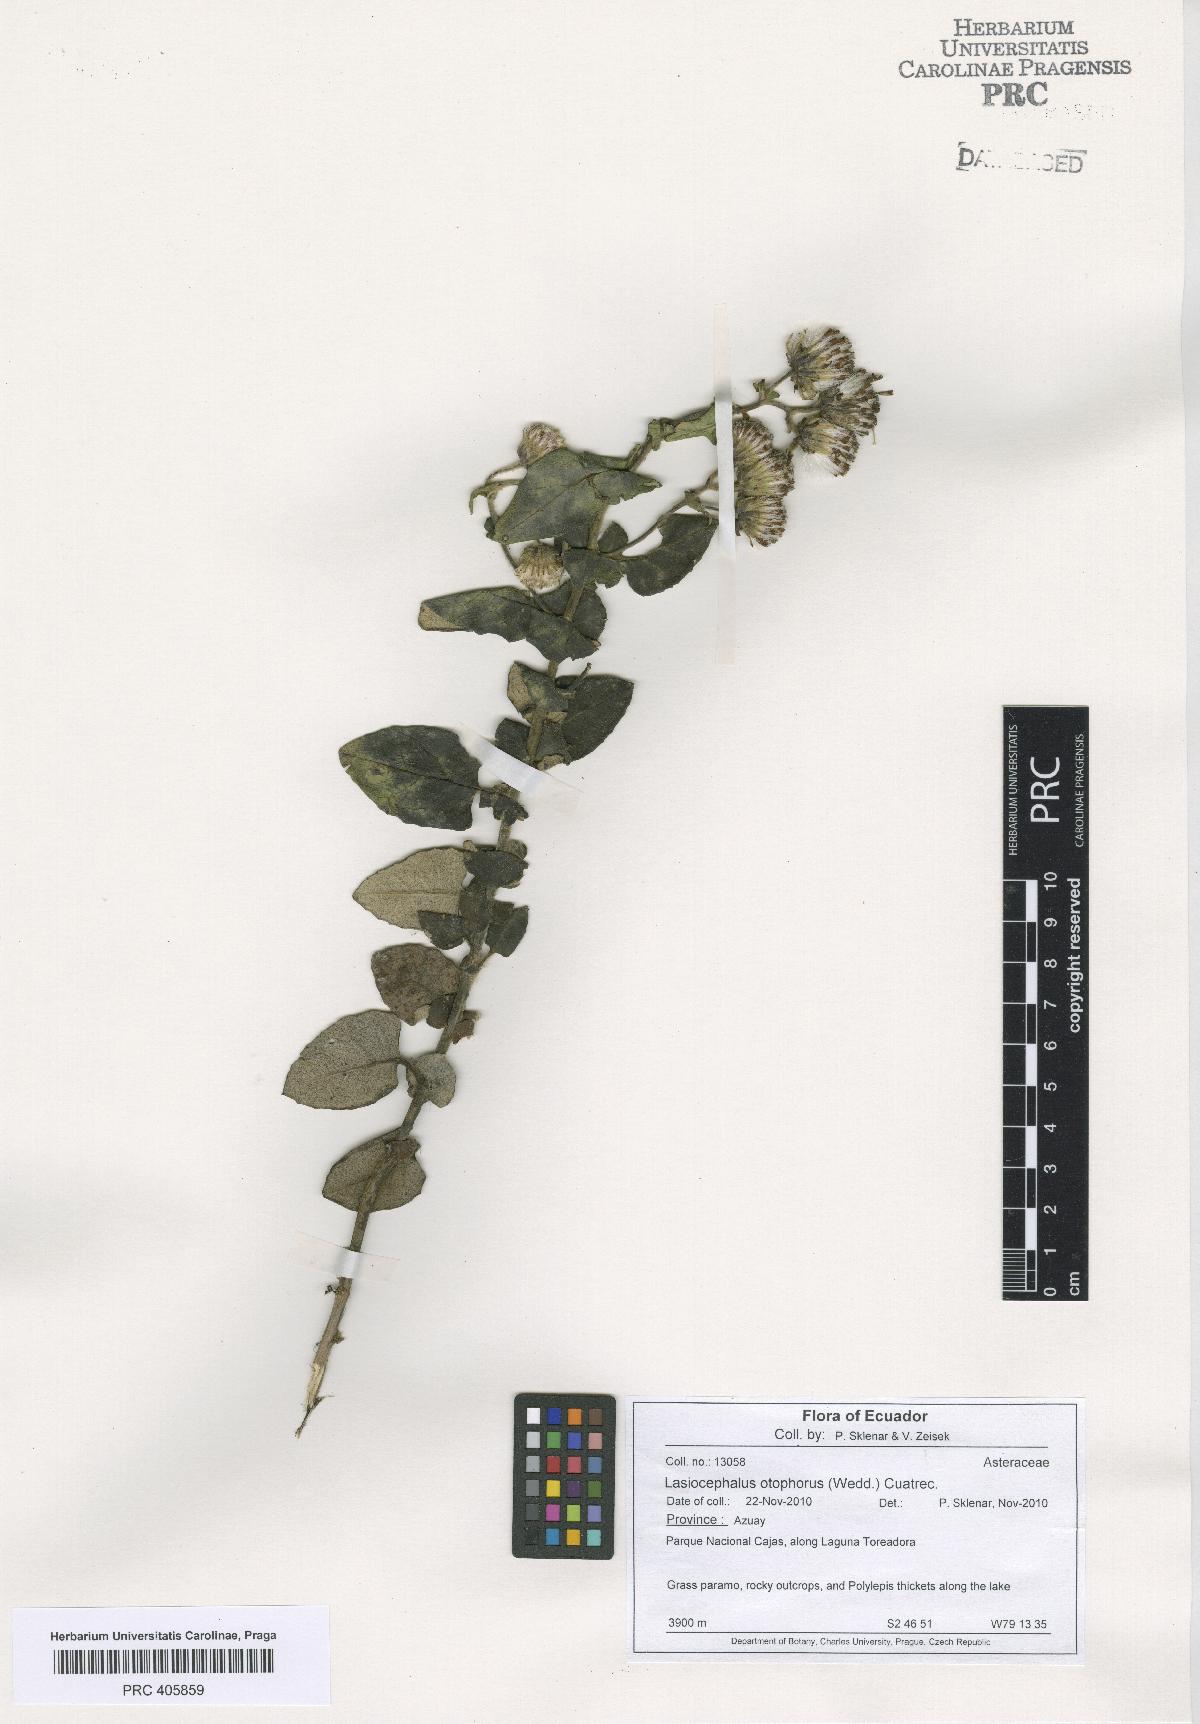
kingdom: Plantae
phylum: Tracheophyta
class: Magnoliopsida
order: Asterales
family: Asteraceae
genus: Lasiocephalus
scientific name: Lasiocephalus
